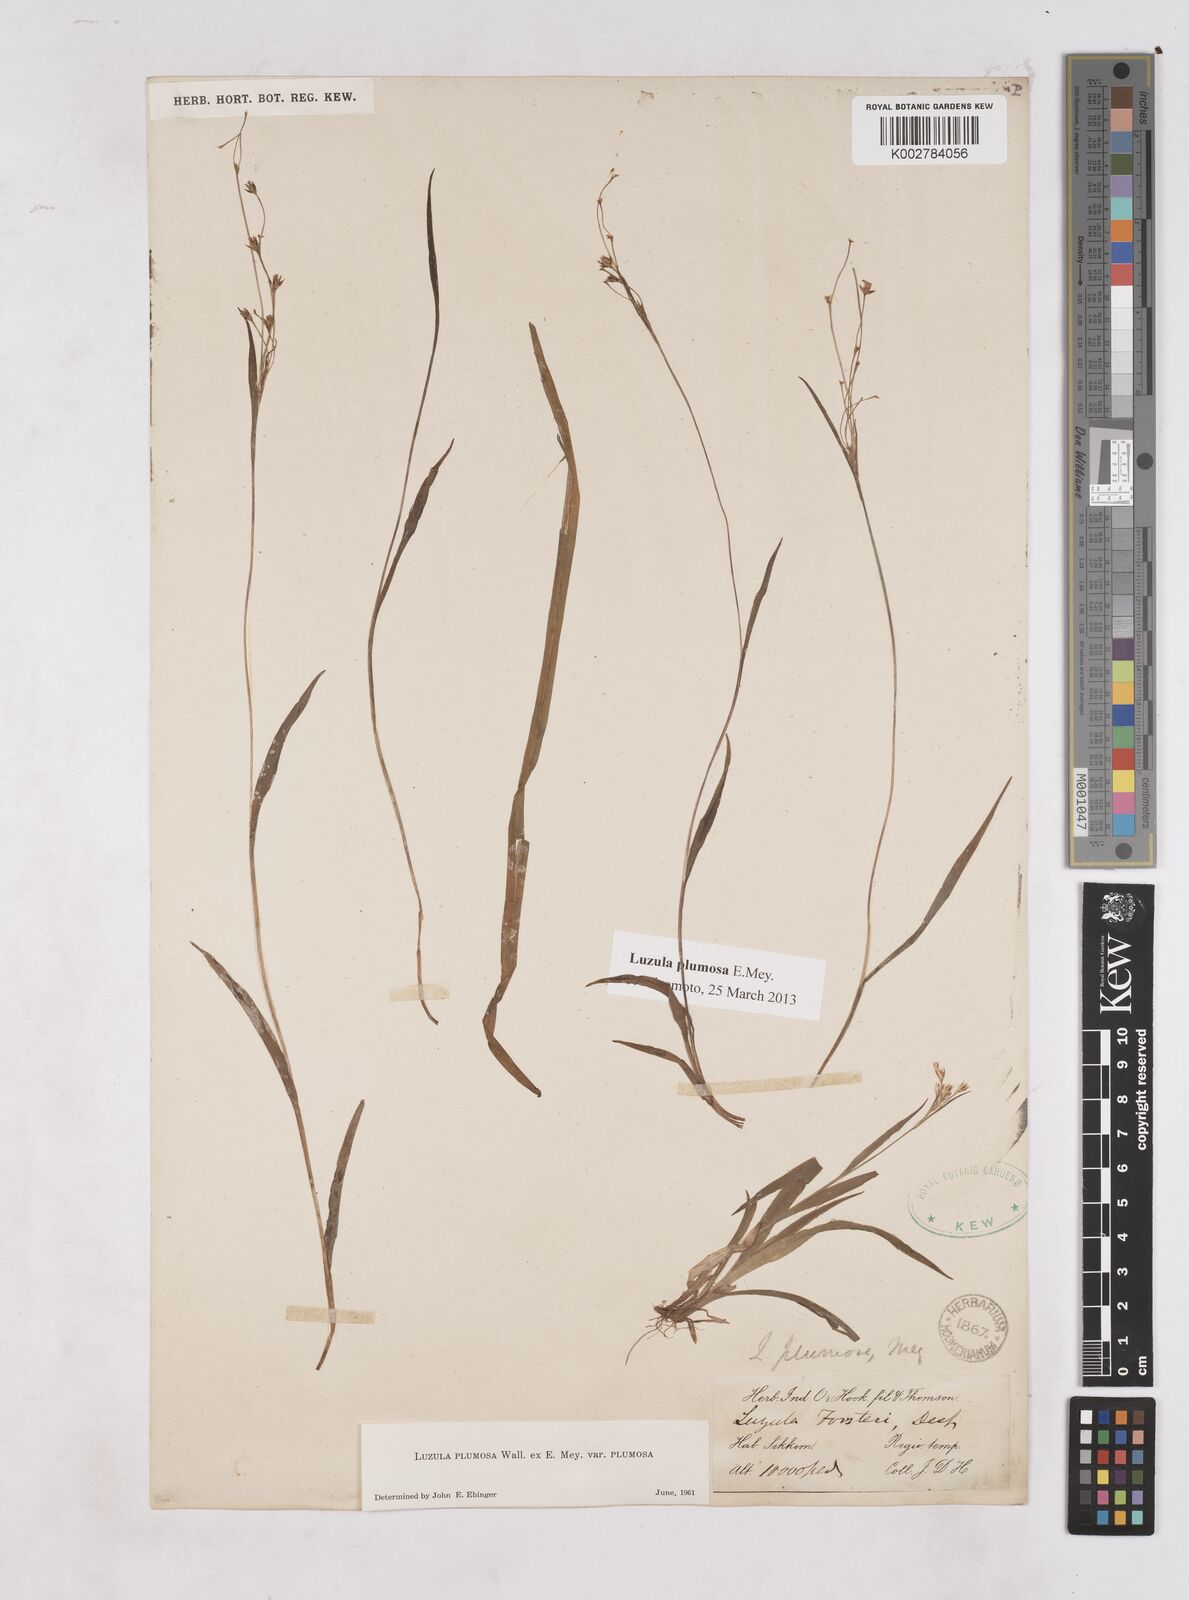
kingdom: Plantae
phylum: Tracheophyta
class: Liliopsida
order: Poales
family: Juncaceae
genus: Luzula
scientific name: Luzula plumosa
